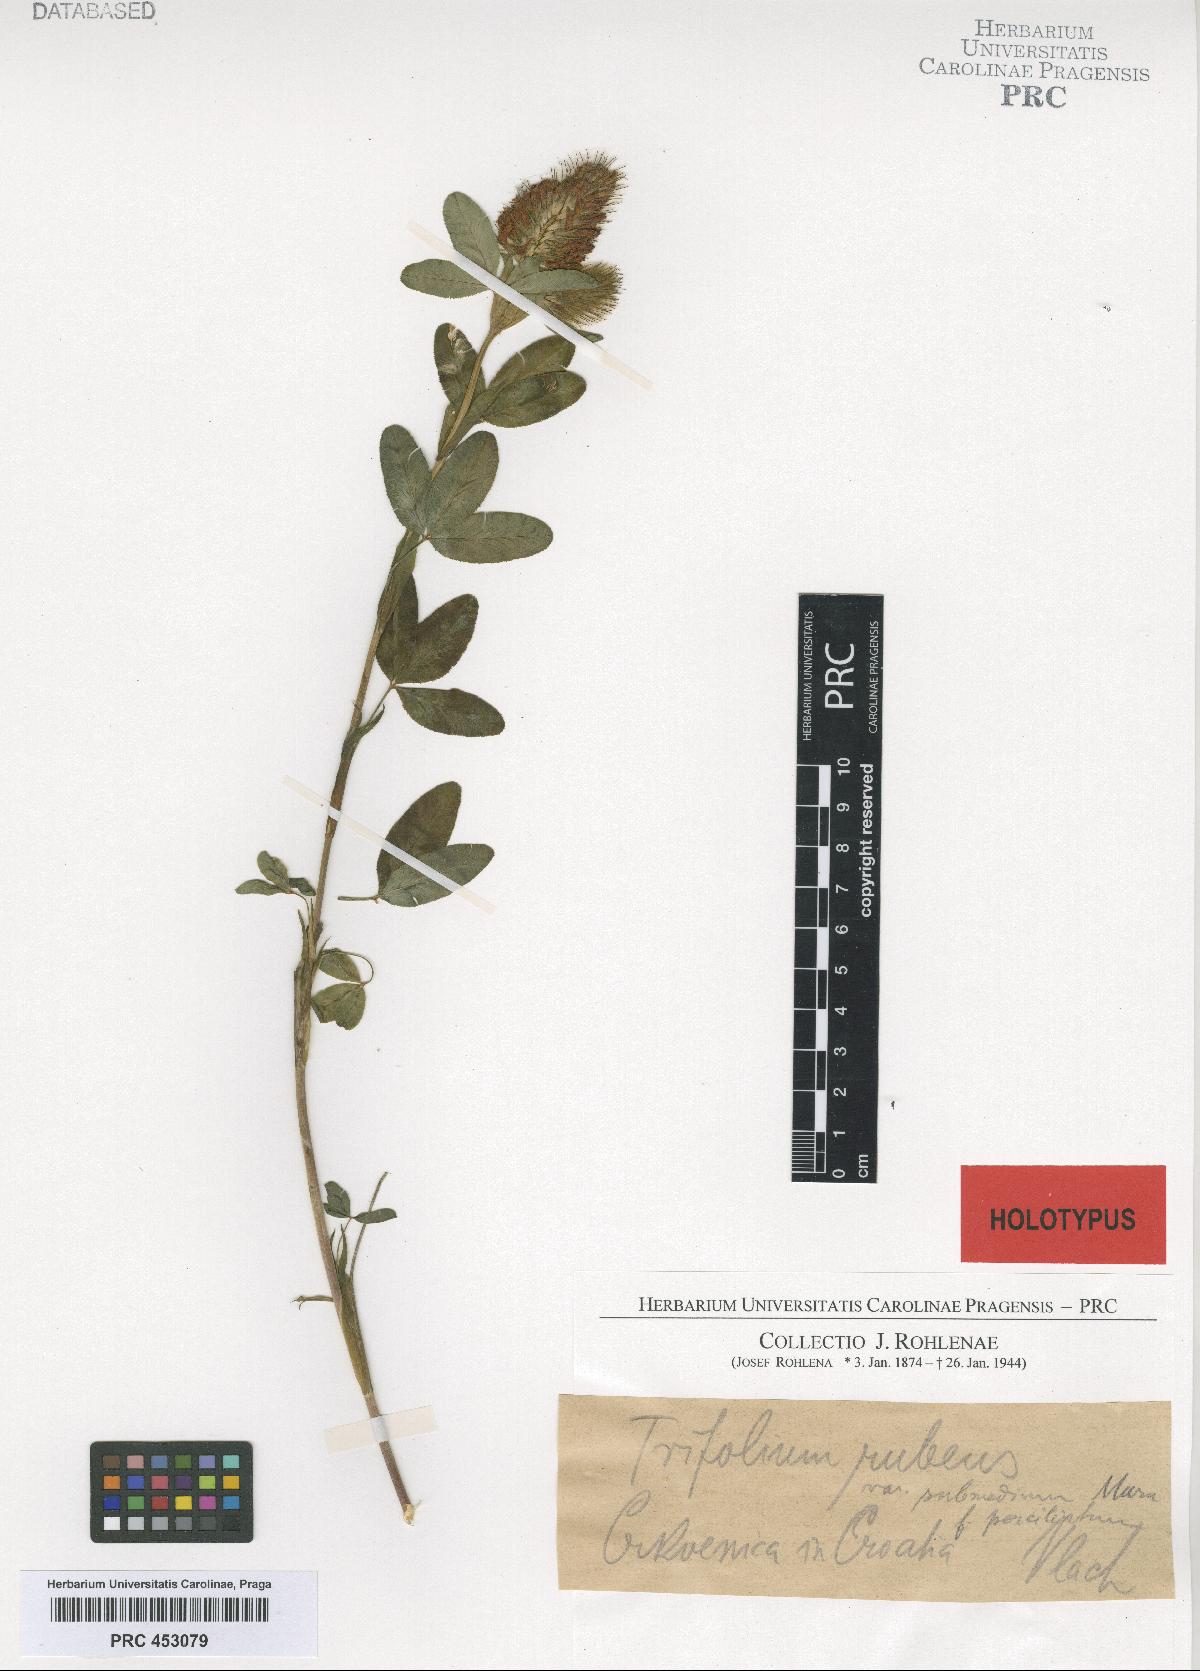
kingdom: Plantae
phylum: Tracheophyta
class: Magnoliopsida
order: Fabales
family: Fabaceae
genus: Trifolium
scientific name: Trifolium rubens
